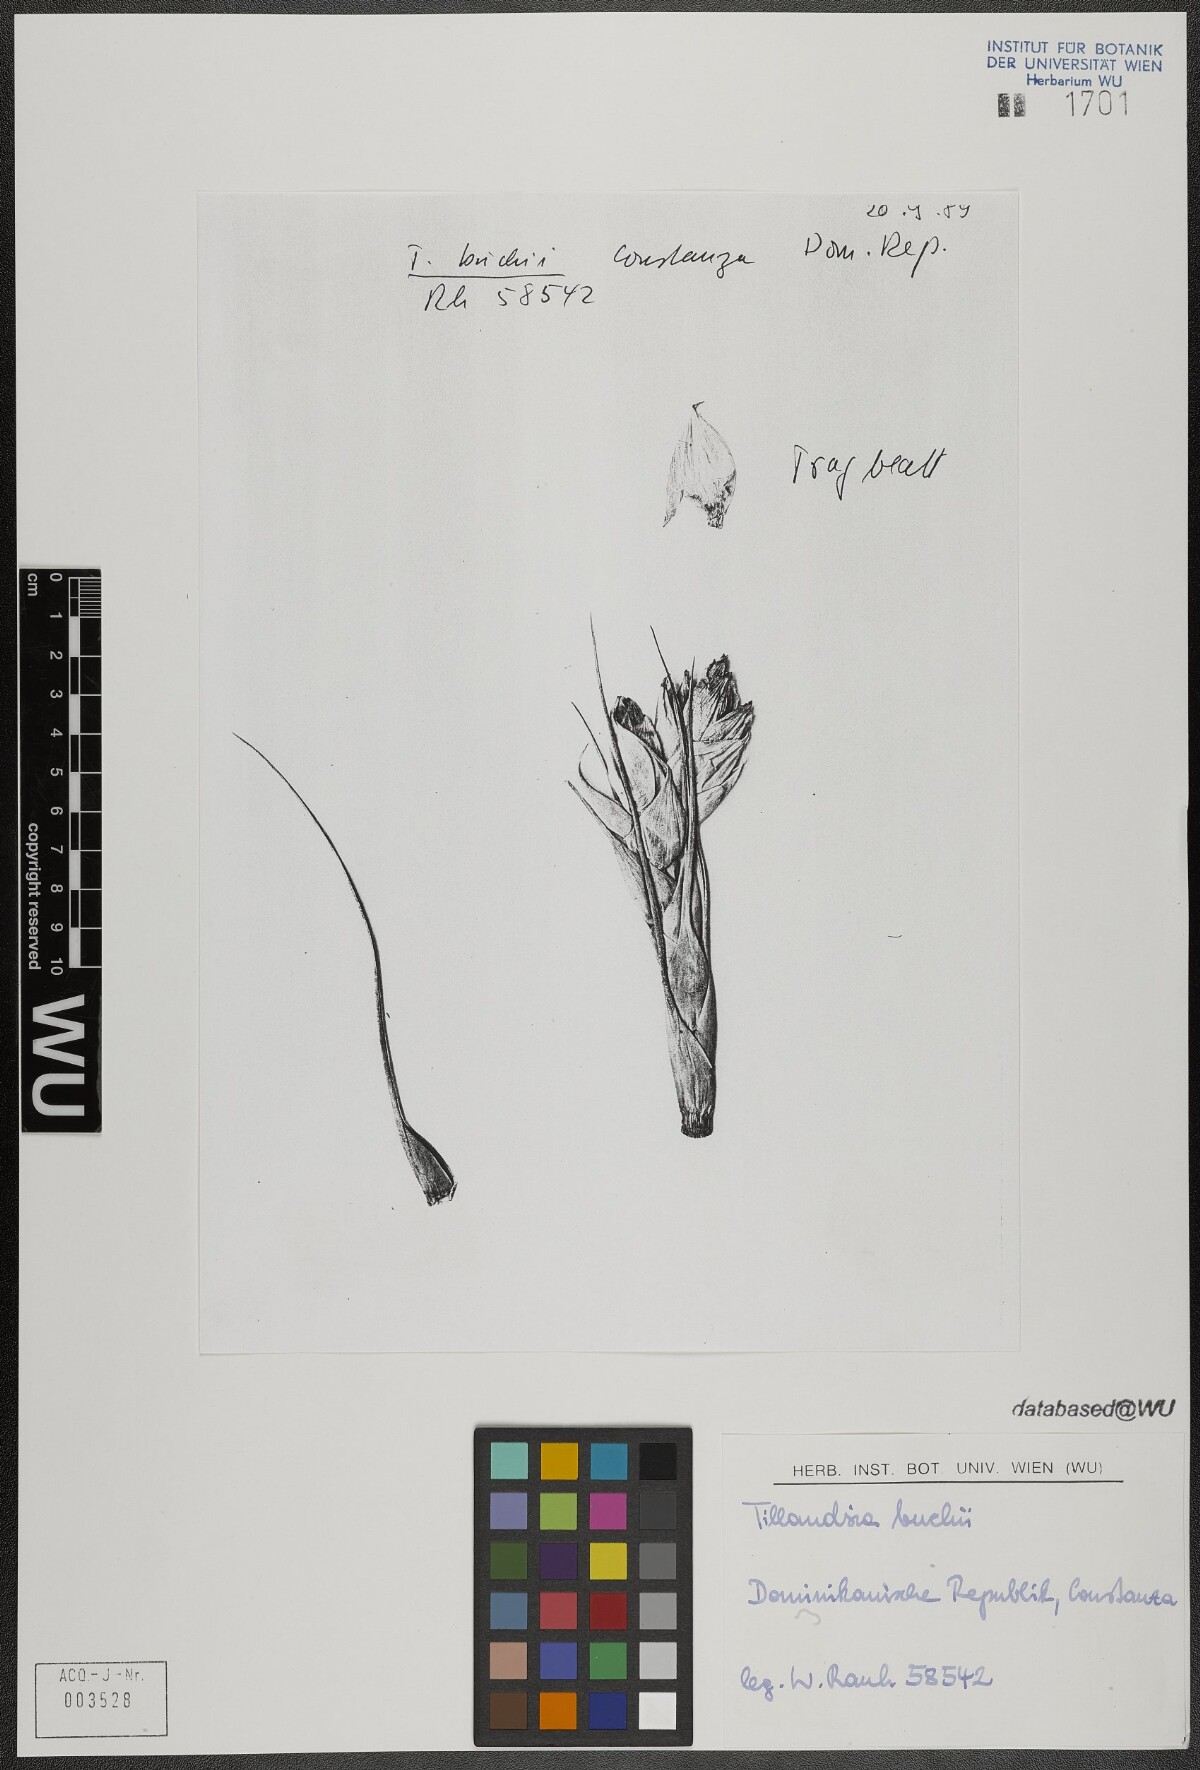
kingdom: Plantae
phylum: Tracheophyta
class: Liliopsida
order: Poales
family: Bromeliaceae
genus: Tillandsia
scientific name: Tillandsia compressa
